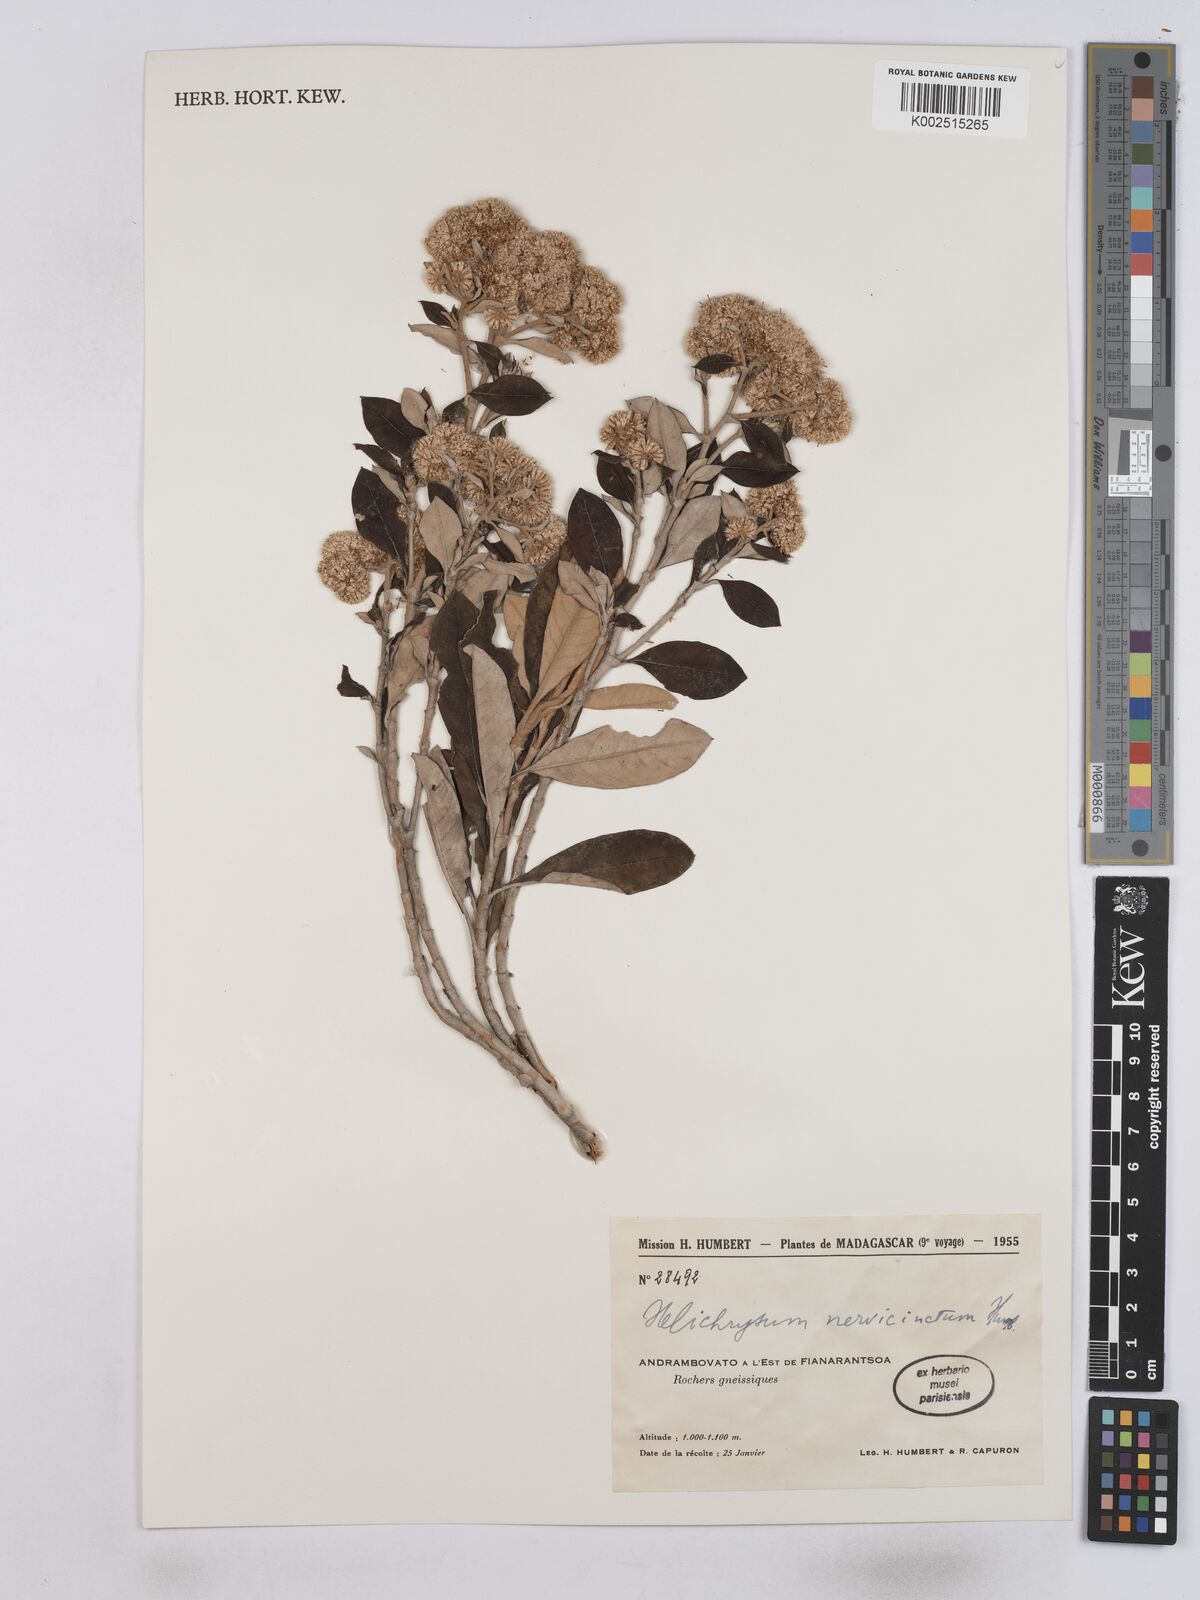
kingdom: Plantae
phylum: Tracheophyta
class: Magnoliopsida
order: Asterales
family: Asteraceae
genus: Helichrysum
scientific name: Helichrysum nervicinctum
